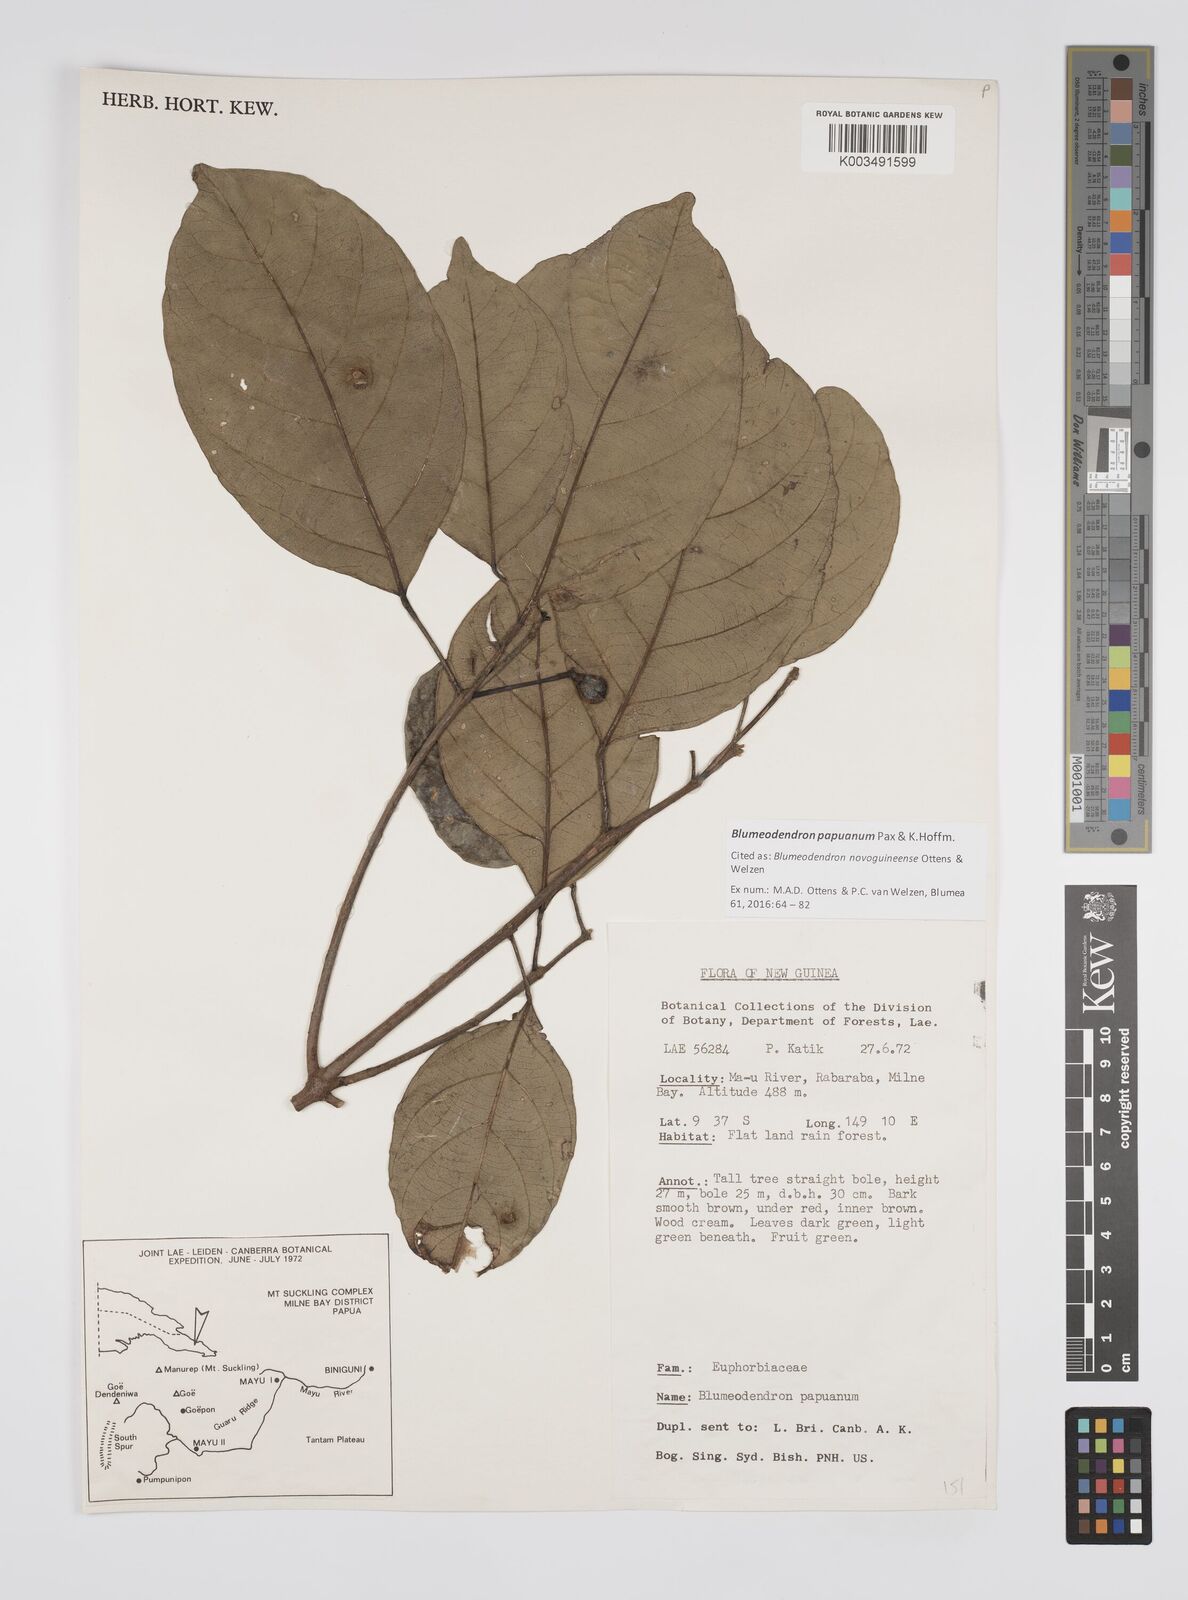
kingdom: Plantae
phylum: Tracheophyta
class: Magnoliopsida
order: Malpighiales
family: Euphorbiaceae
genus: Blumeodendron
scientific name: Blumeodendron papuanum
